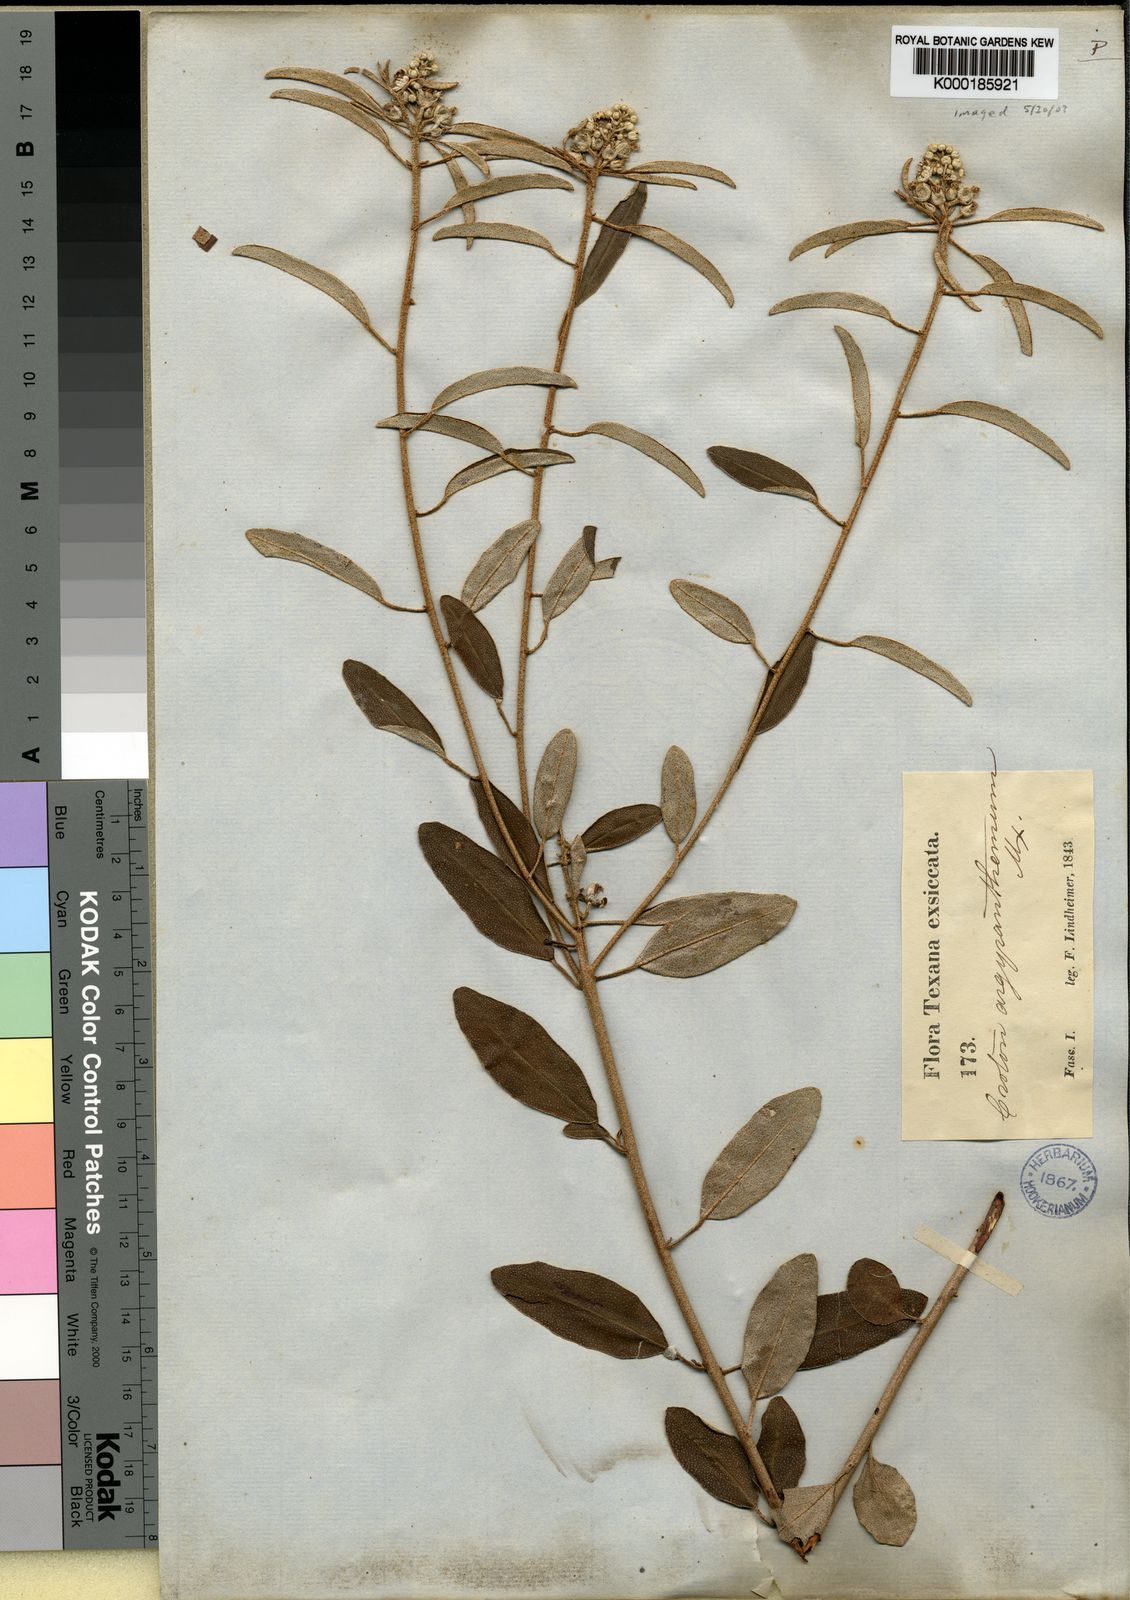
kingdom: Plantae
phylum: Tracheophyta
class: Magnoliopsida
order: Malpighiales
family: Euphorbiaceae
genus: Croton
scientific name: Croton argyranthemus
